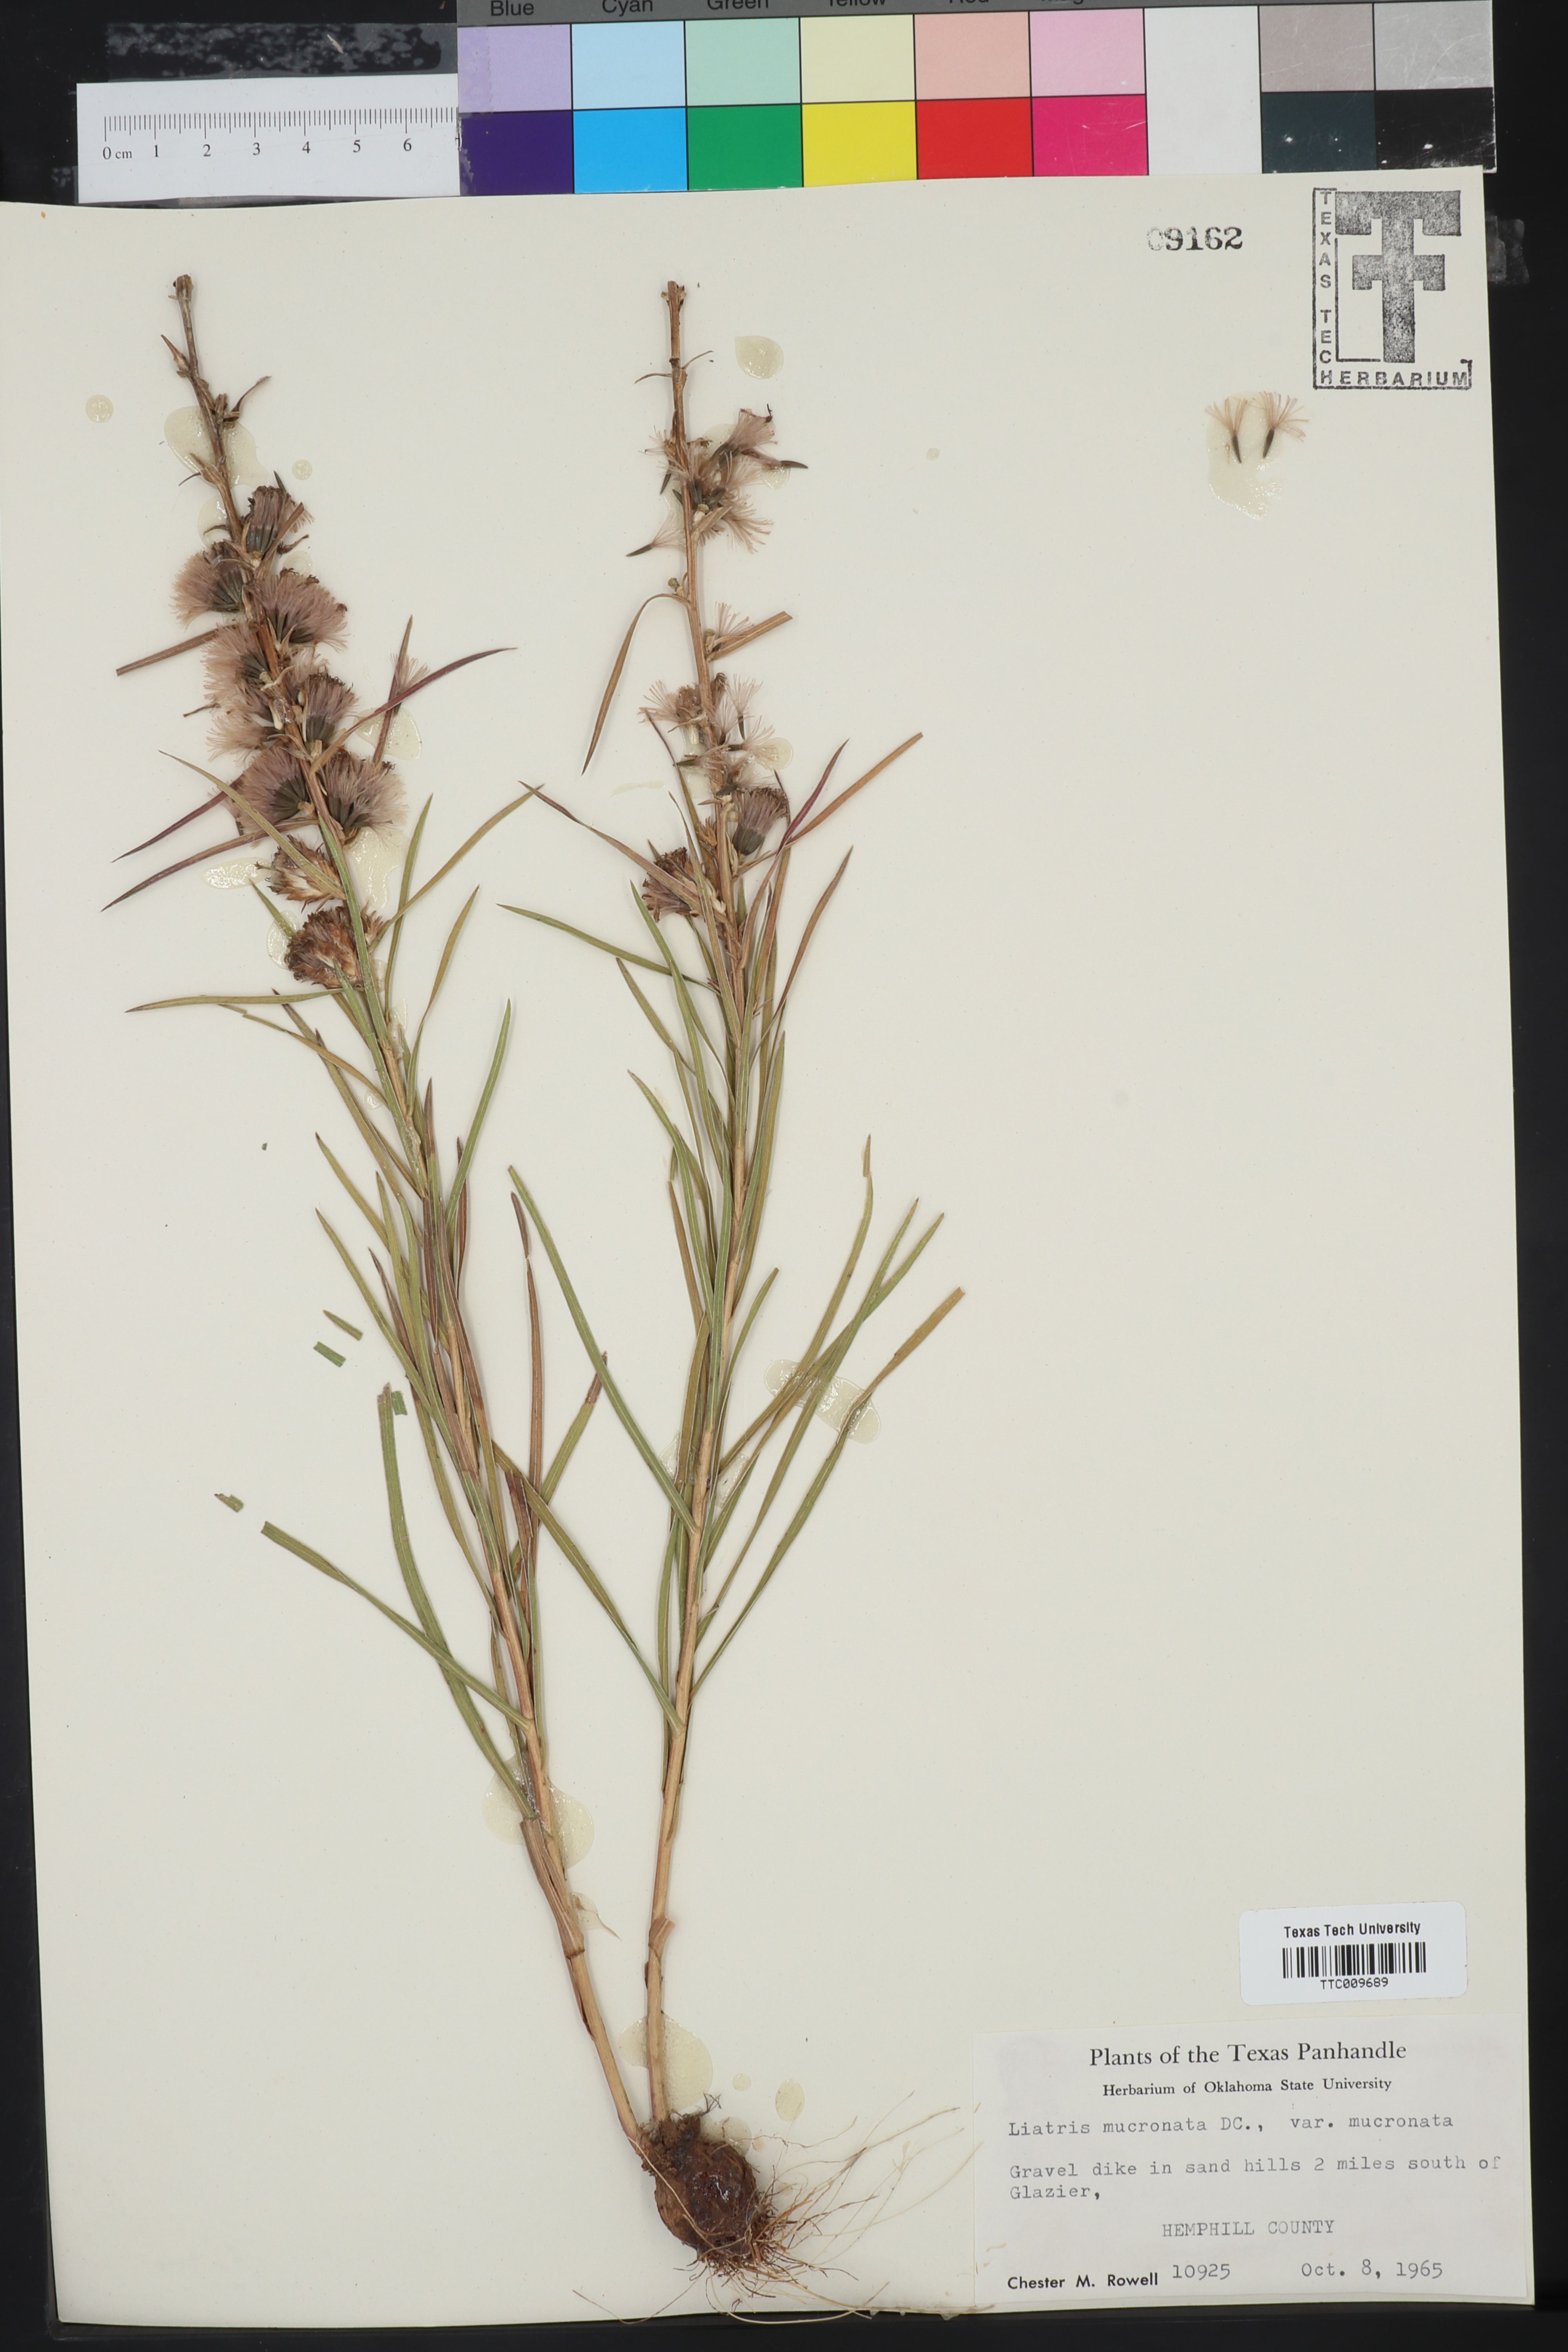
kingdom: Plantae
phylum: Tracheophyta
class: Magnoliopsida
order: Asterales
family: Asteraceae
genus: Liatris
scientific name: Liatris mucronata
